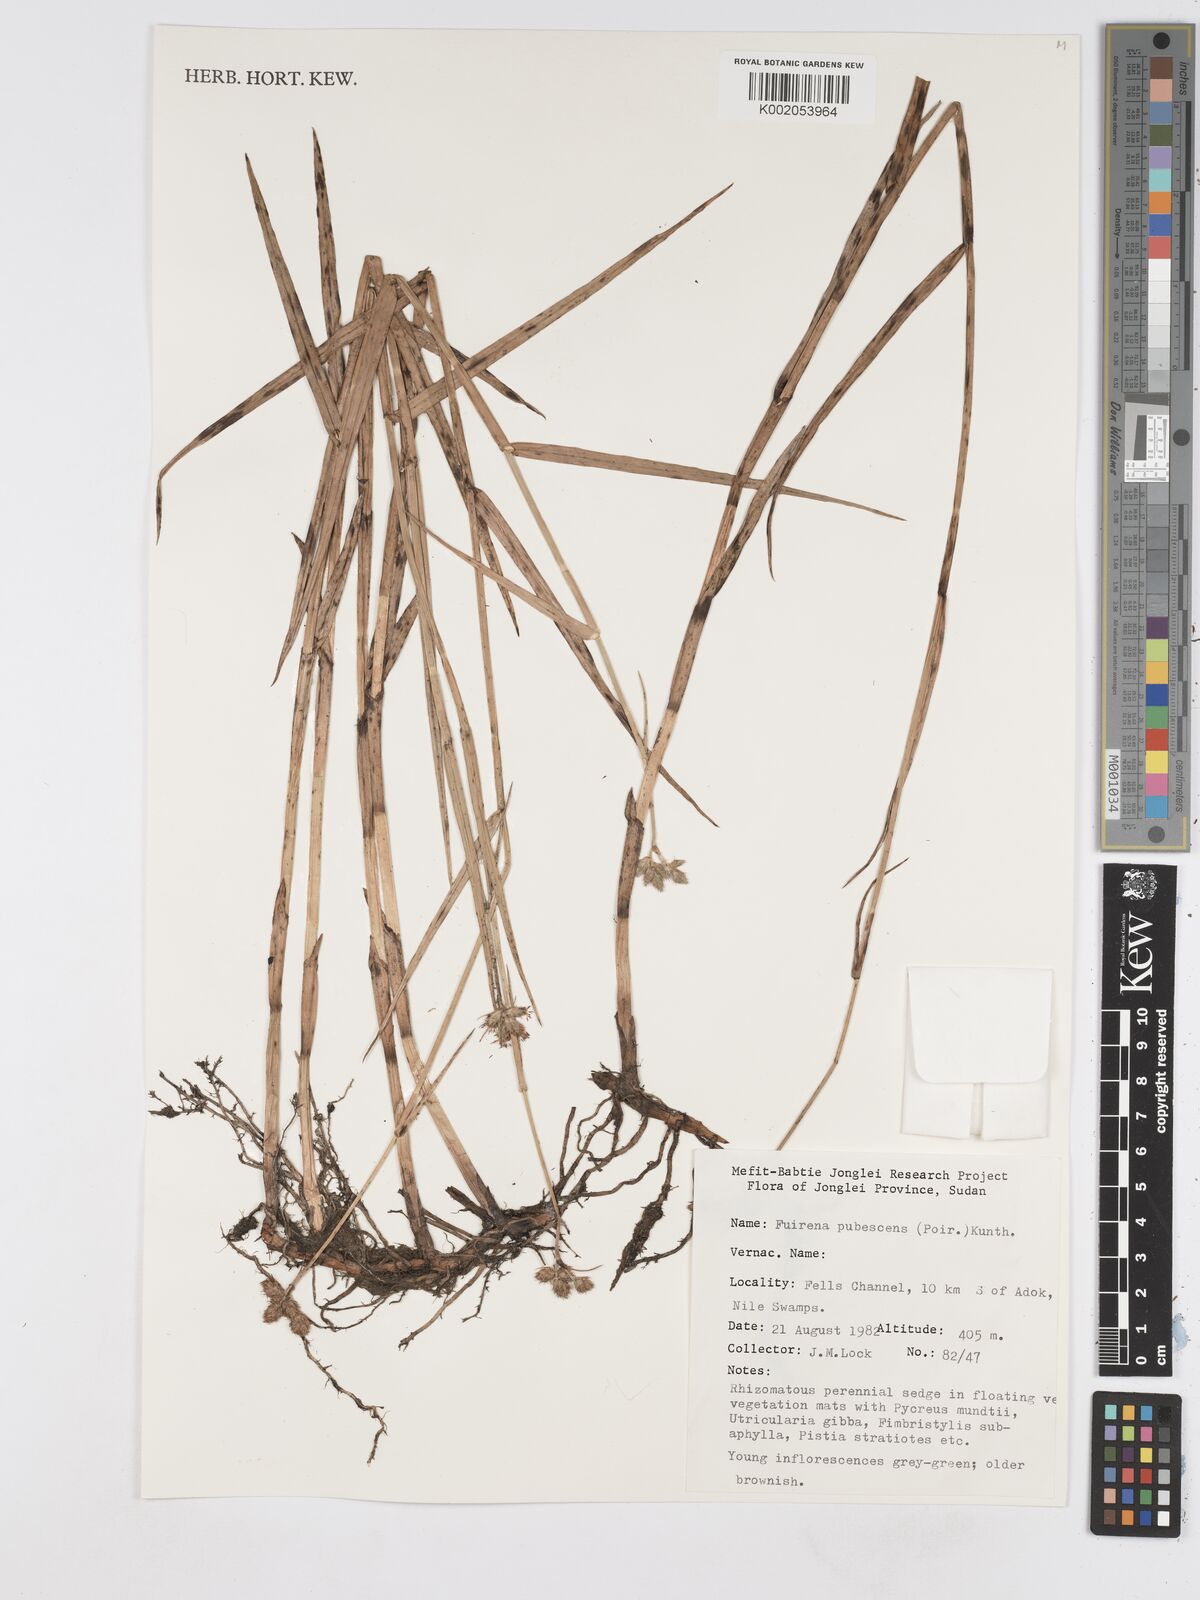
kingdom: Plantae
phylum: Tracheophyta
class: Liliopsida
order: Poales
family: Cyperaceae
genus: Fuirena
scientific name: Fuirena pubescens
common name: Hairy sedge
